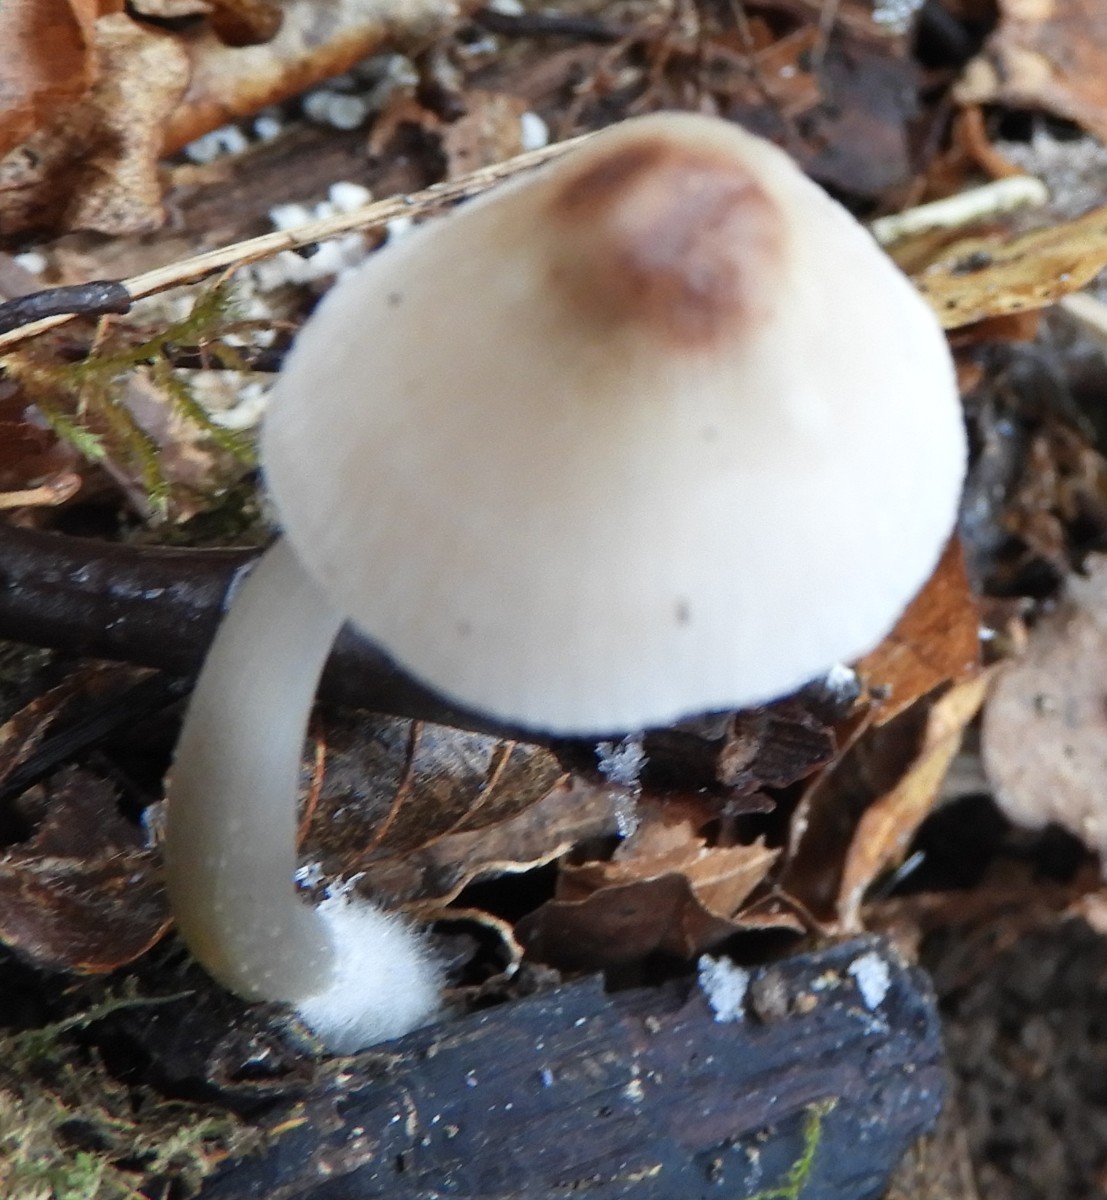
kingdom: Fungi
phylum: Basidiomycota
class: Agaricomycetes
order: Agaricales
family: Mycenaceae
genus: Mycena
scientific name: Mycena
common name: huesvamp
